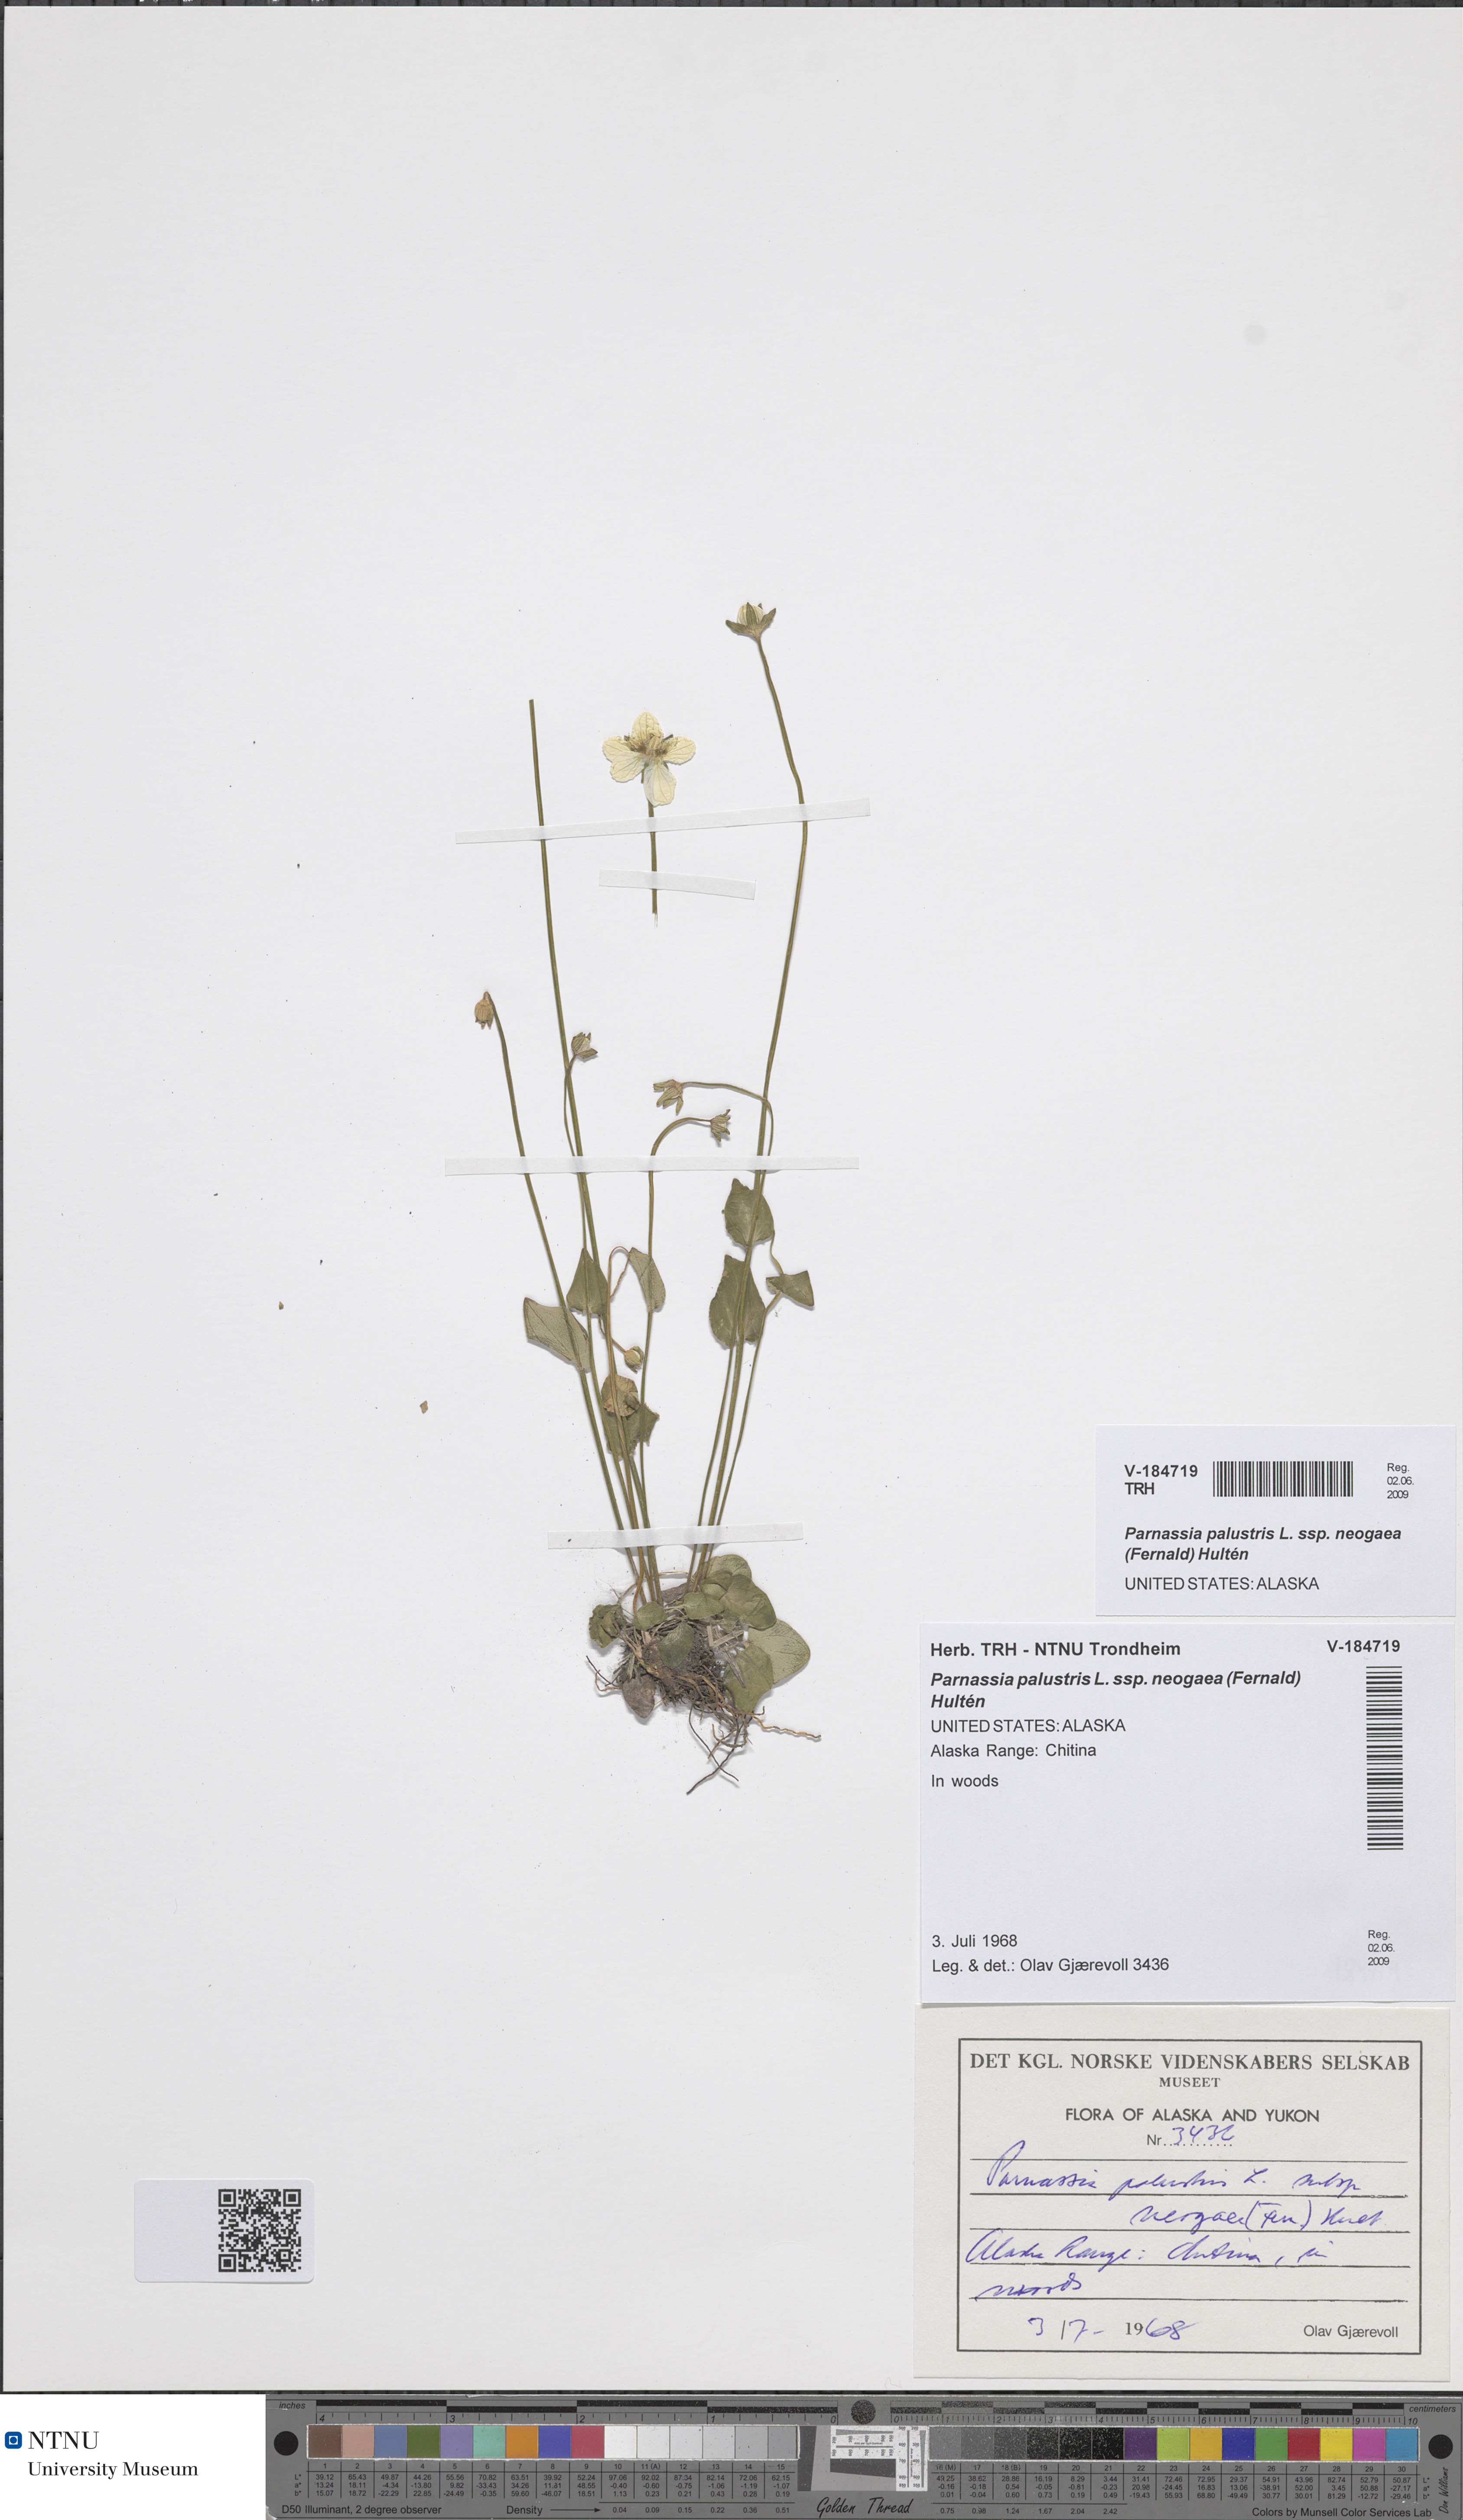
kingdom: Plantae
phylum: Tracheophyta
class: Magnoliopsida
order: Celastrales
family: Parnassiaceae
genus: Parnassia
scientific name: Parnassia palustris
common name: Grass-of-parnassus
